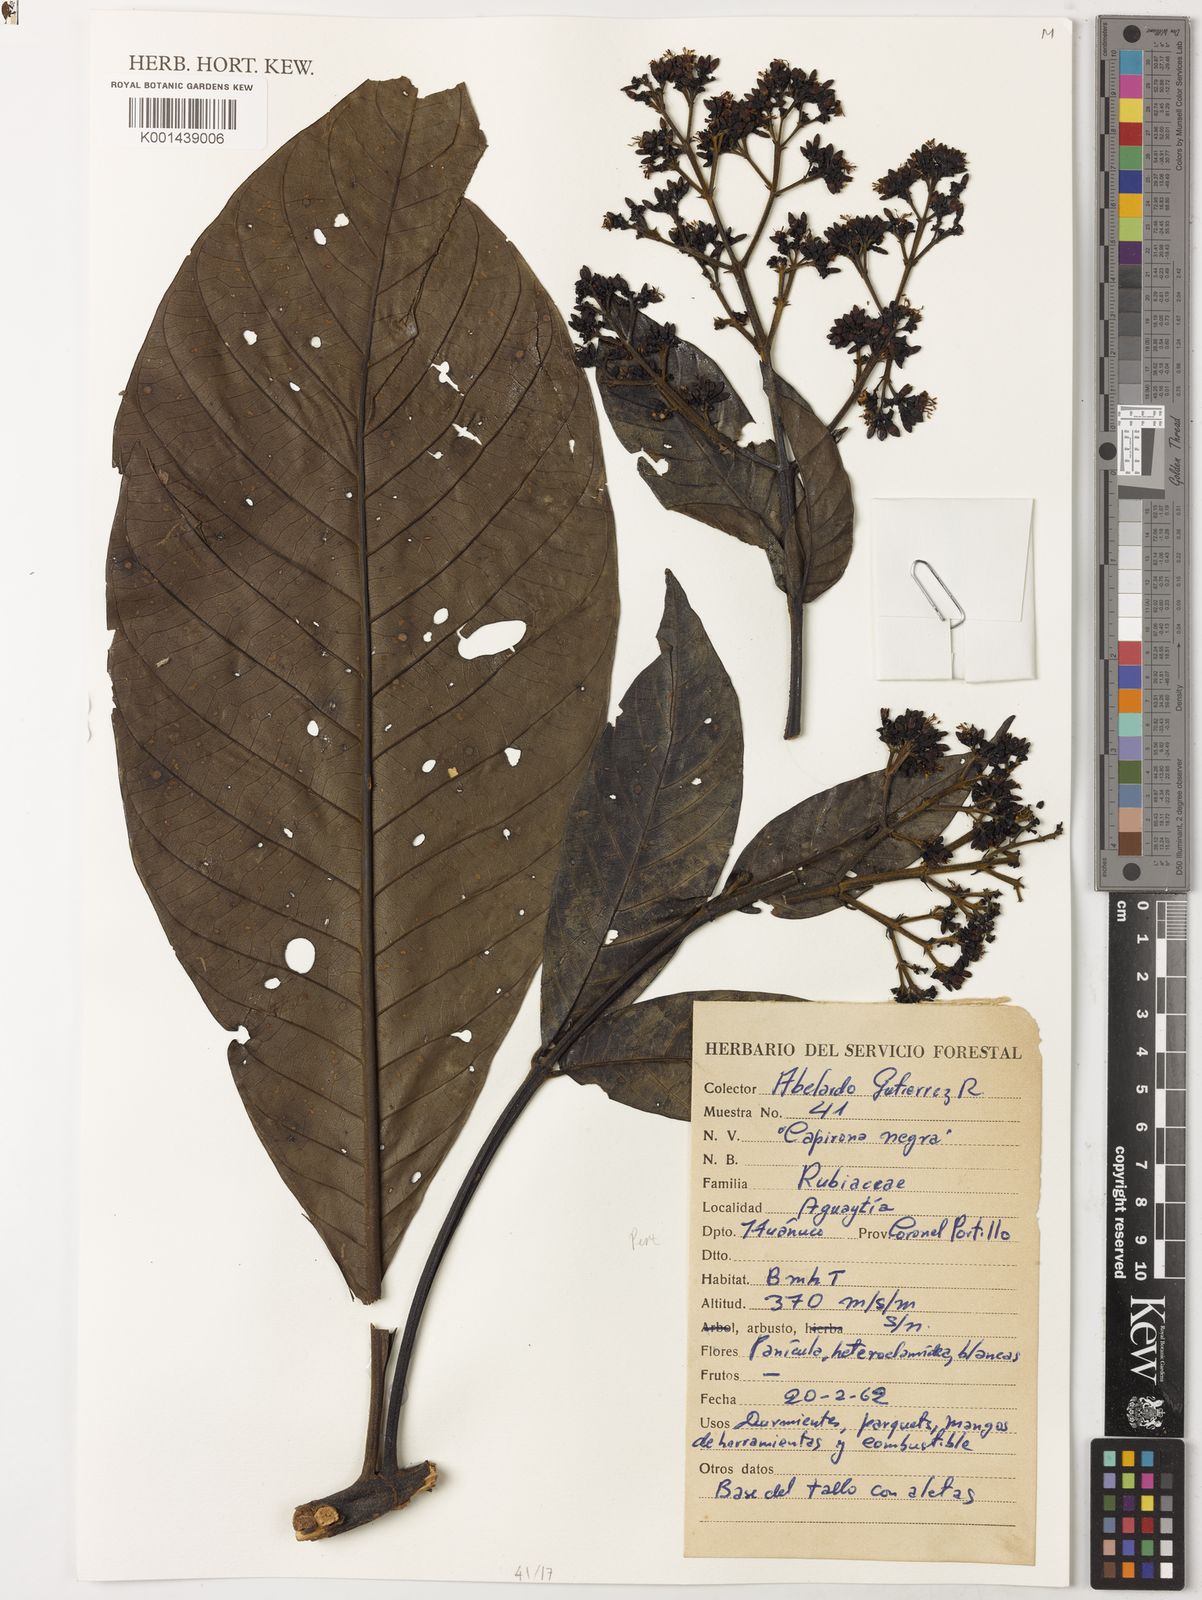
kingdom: Plantae
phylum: Tracheophyta
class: Magnoliopsida
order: Gentianales
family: Rubiaceae
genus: Capirona
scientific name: Capirona
